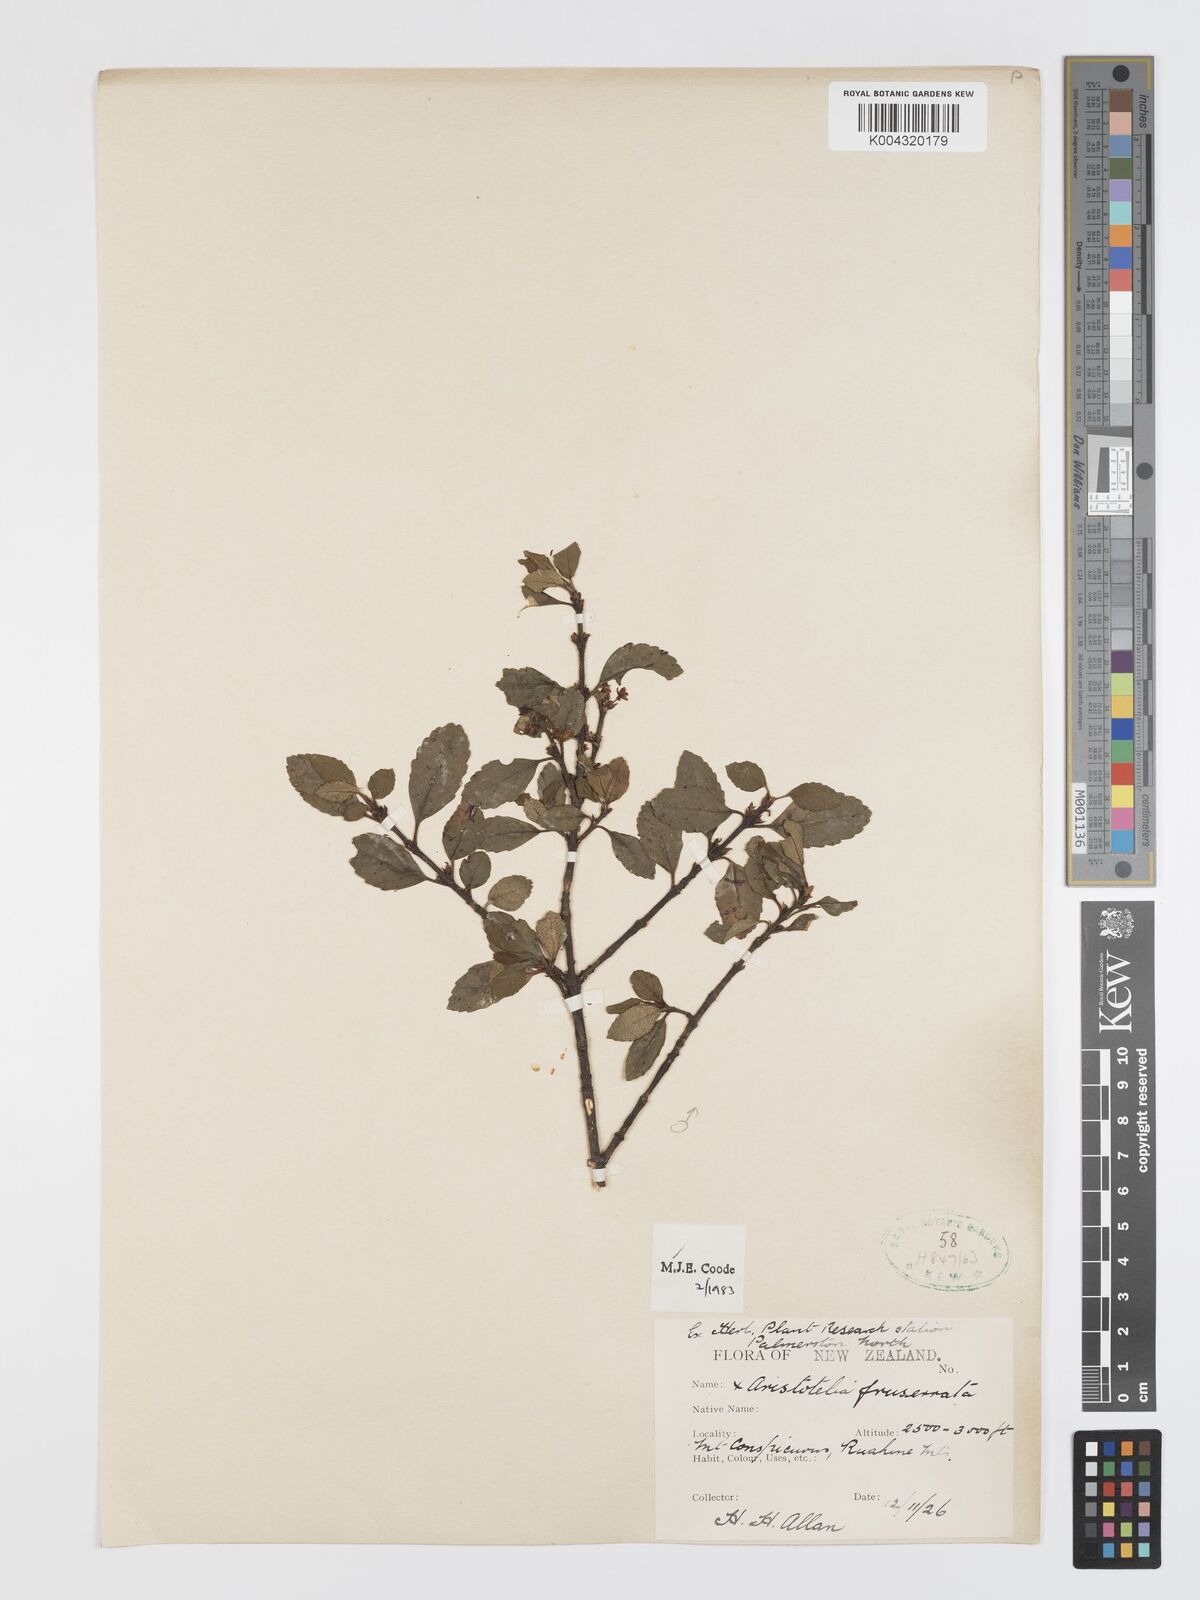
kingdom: Plantae
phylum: Tracheophyta
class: Magnoliopsida
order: Oxalidales
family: Elaeocarpaceae
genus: Aristotelia
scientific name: Aristotelia fruticosa
